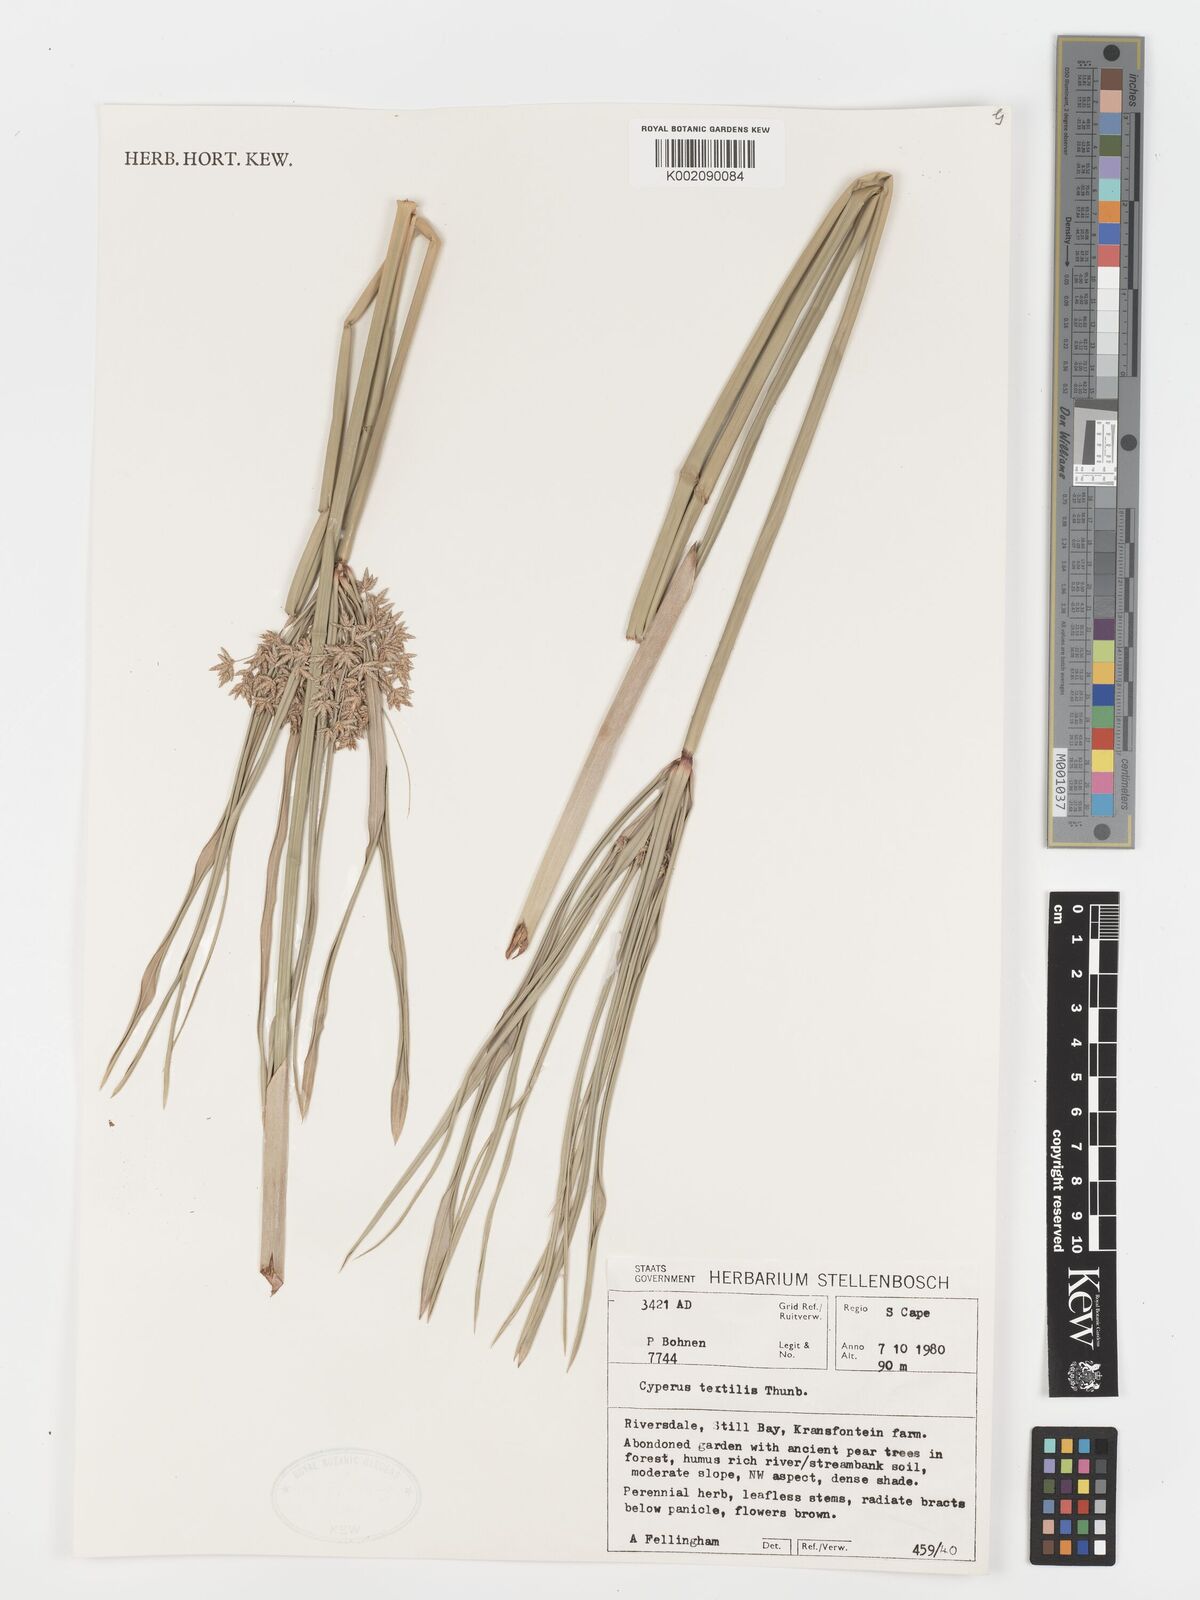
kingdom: Plantae
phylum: Tracheophyta
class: Liliopsida
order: Poales
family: Cyperaceae
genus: Cyperus
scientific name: Cyperus alternifolius
